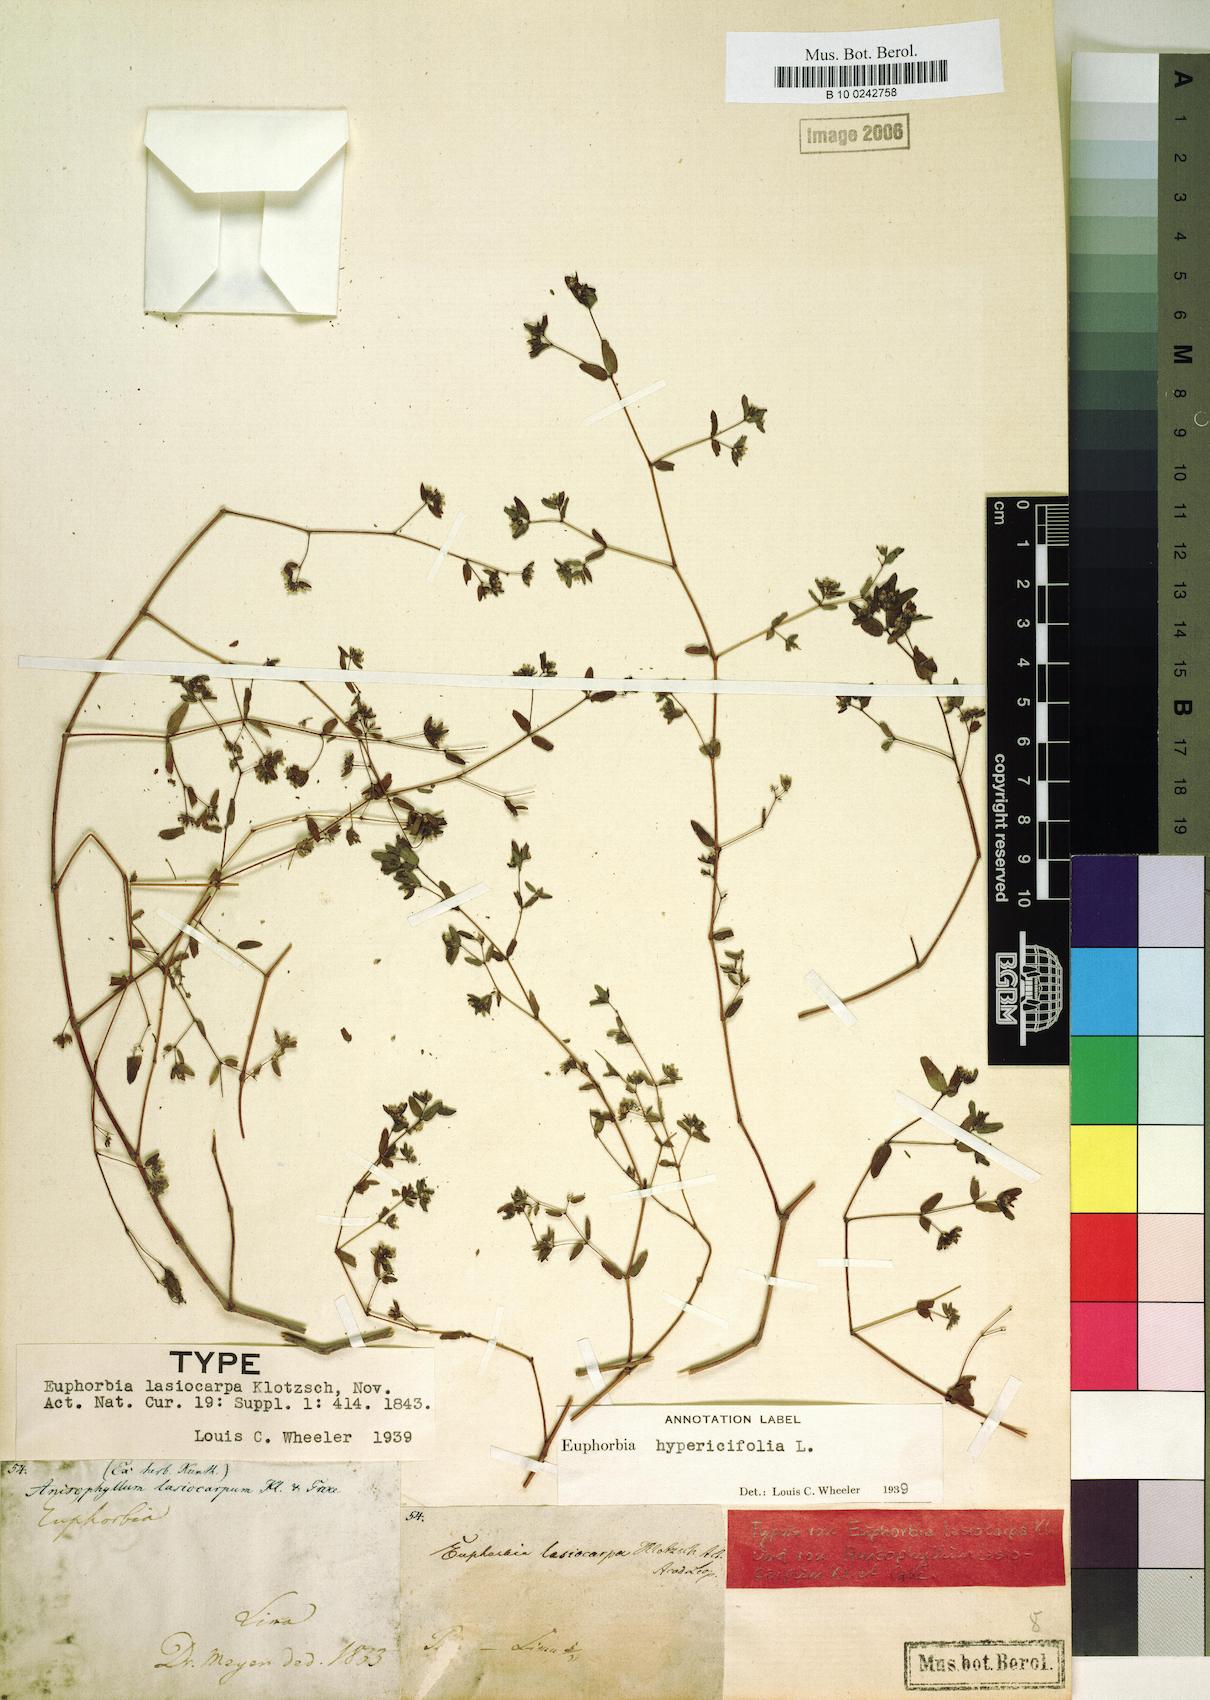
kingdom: Plantae
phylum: Tracheophyta
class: Magnoliopsida
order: Malpighiales
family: Euphorbiaceae
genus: Euphorbia
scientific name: Euphorbia lasiocarpa
